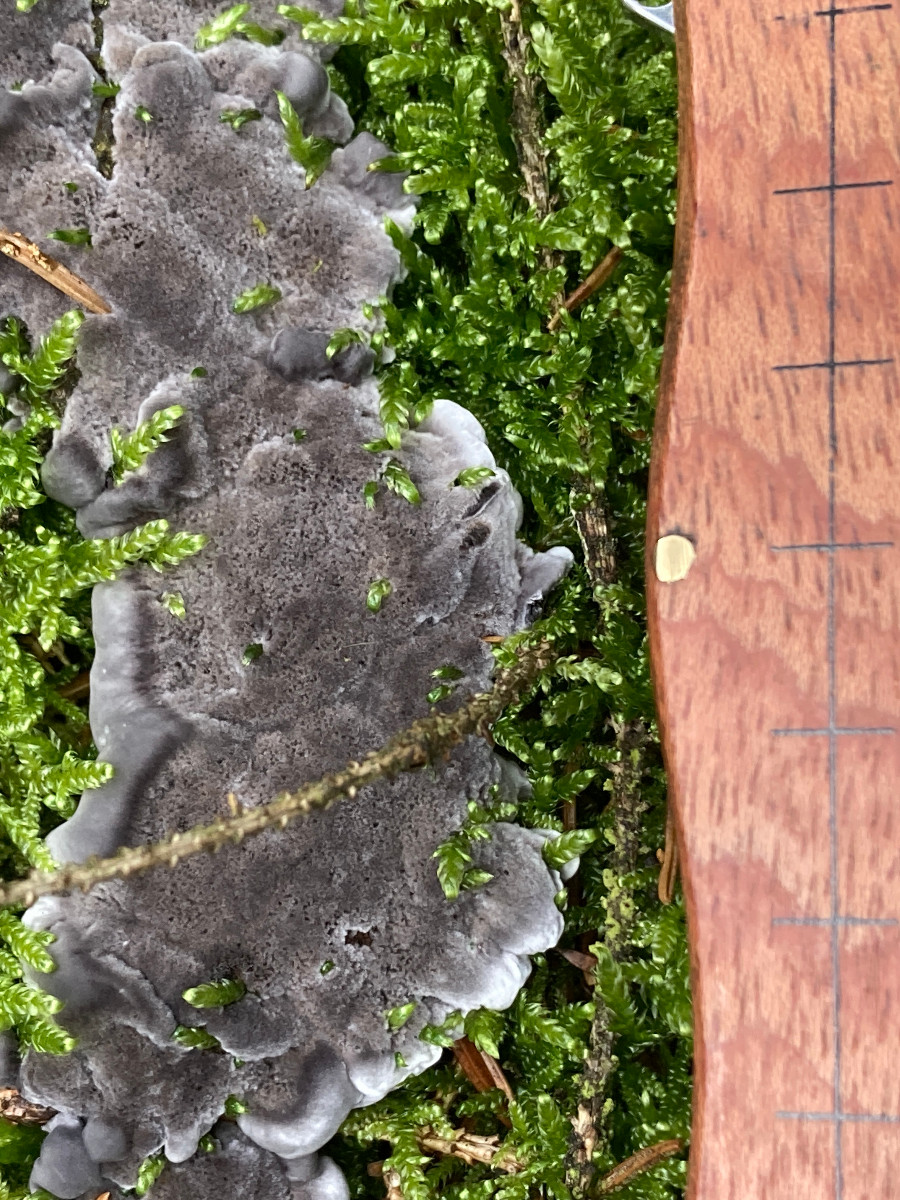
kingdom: Fungi
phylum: Basidiomycota
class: Agaricomycetes
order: Thelephorales
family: Thelephoraceae
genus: Phellodon
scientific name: Phellodon
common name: mørk duftpigsvamp
